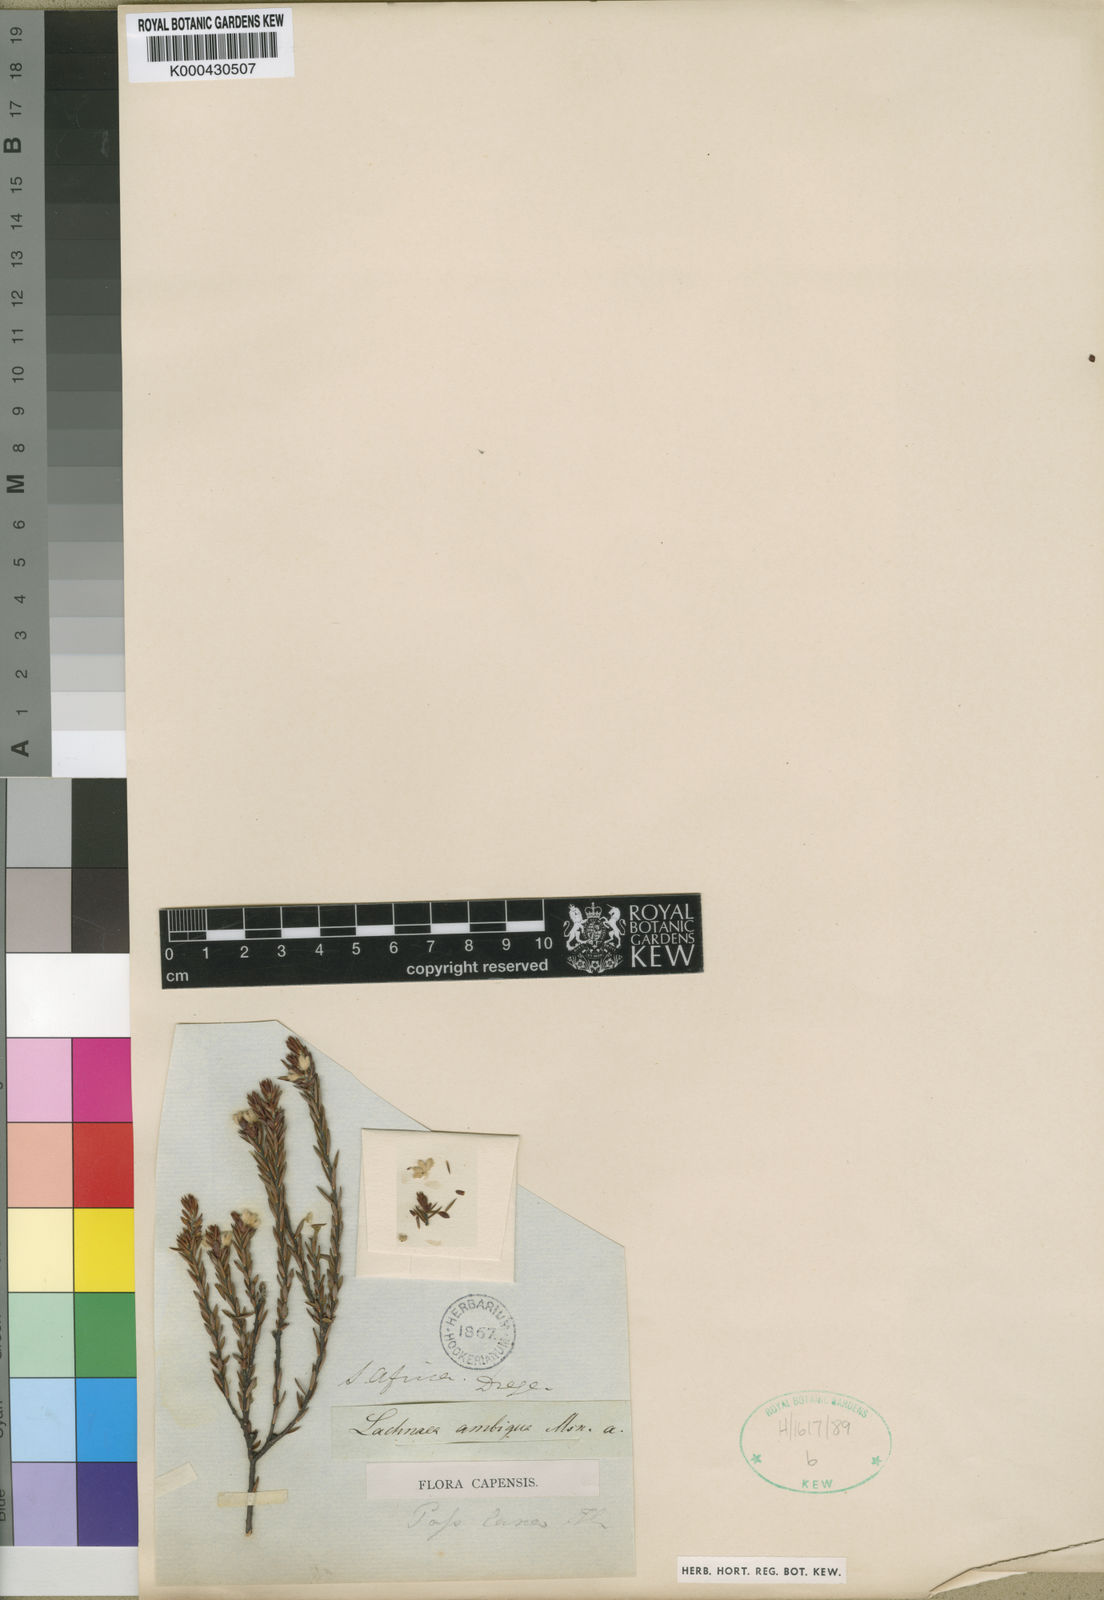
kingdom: Plantae
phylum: Tracheophyta
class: Magnoliopsida
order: Malvales
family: Thymelaeaceae
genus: Lachnaea
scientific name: Lachnaea nervosa
